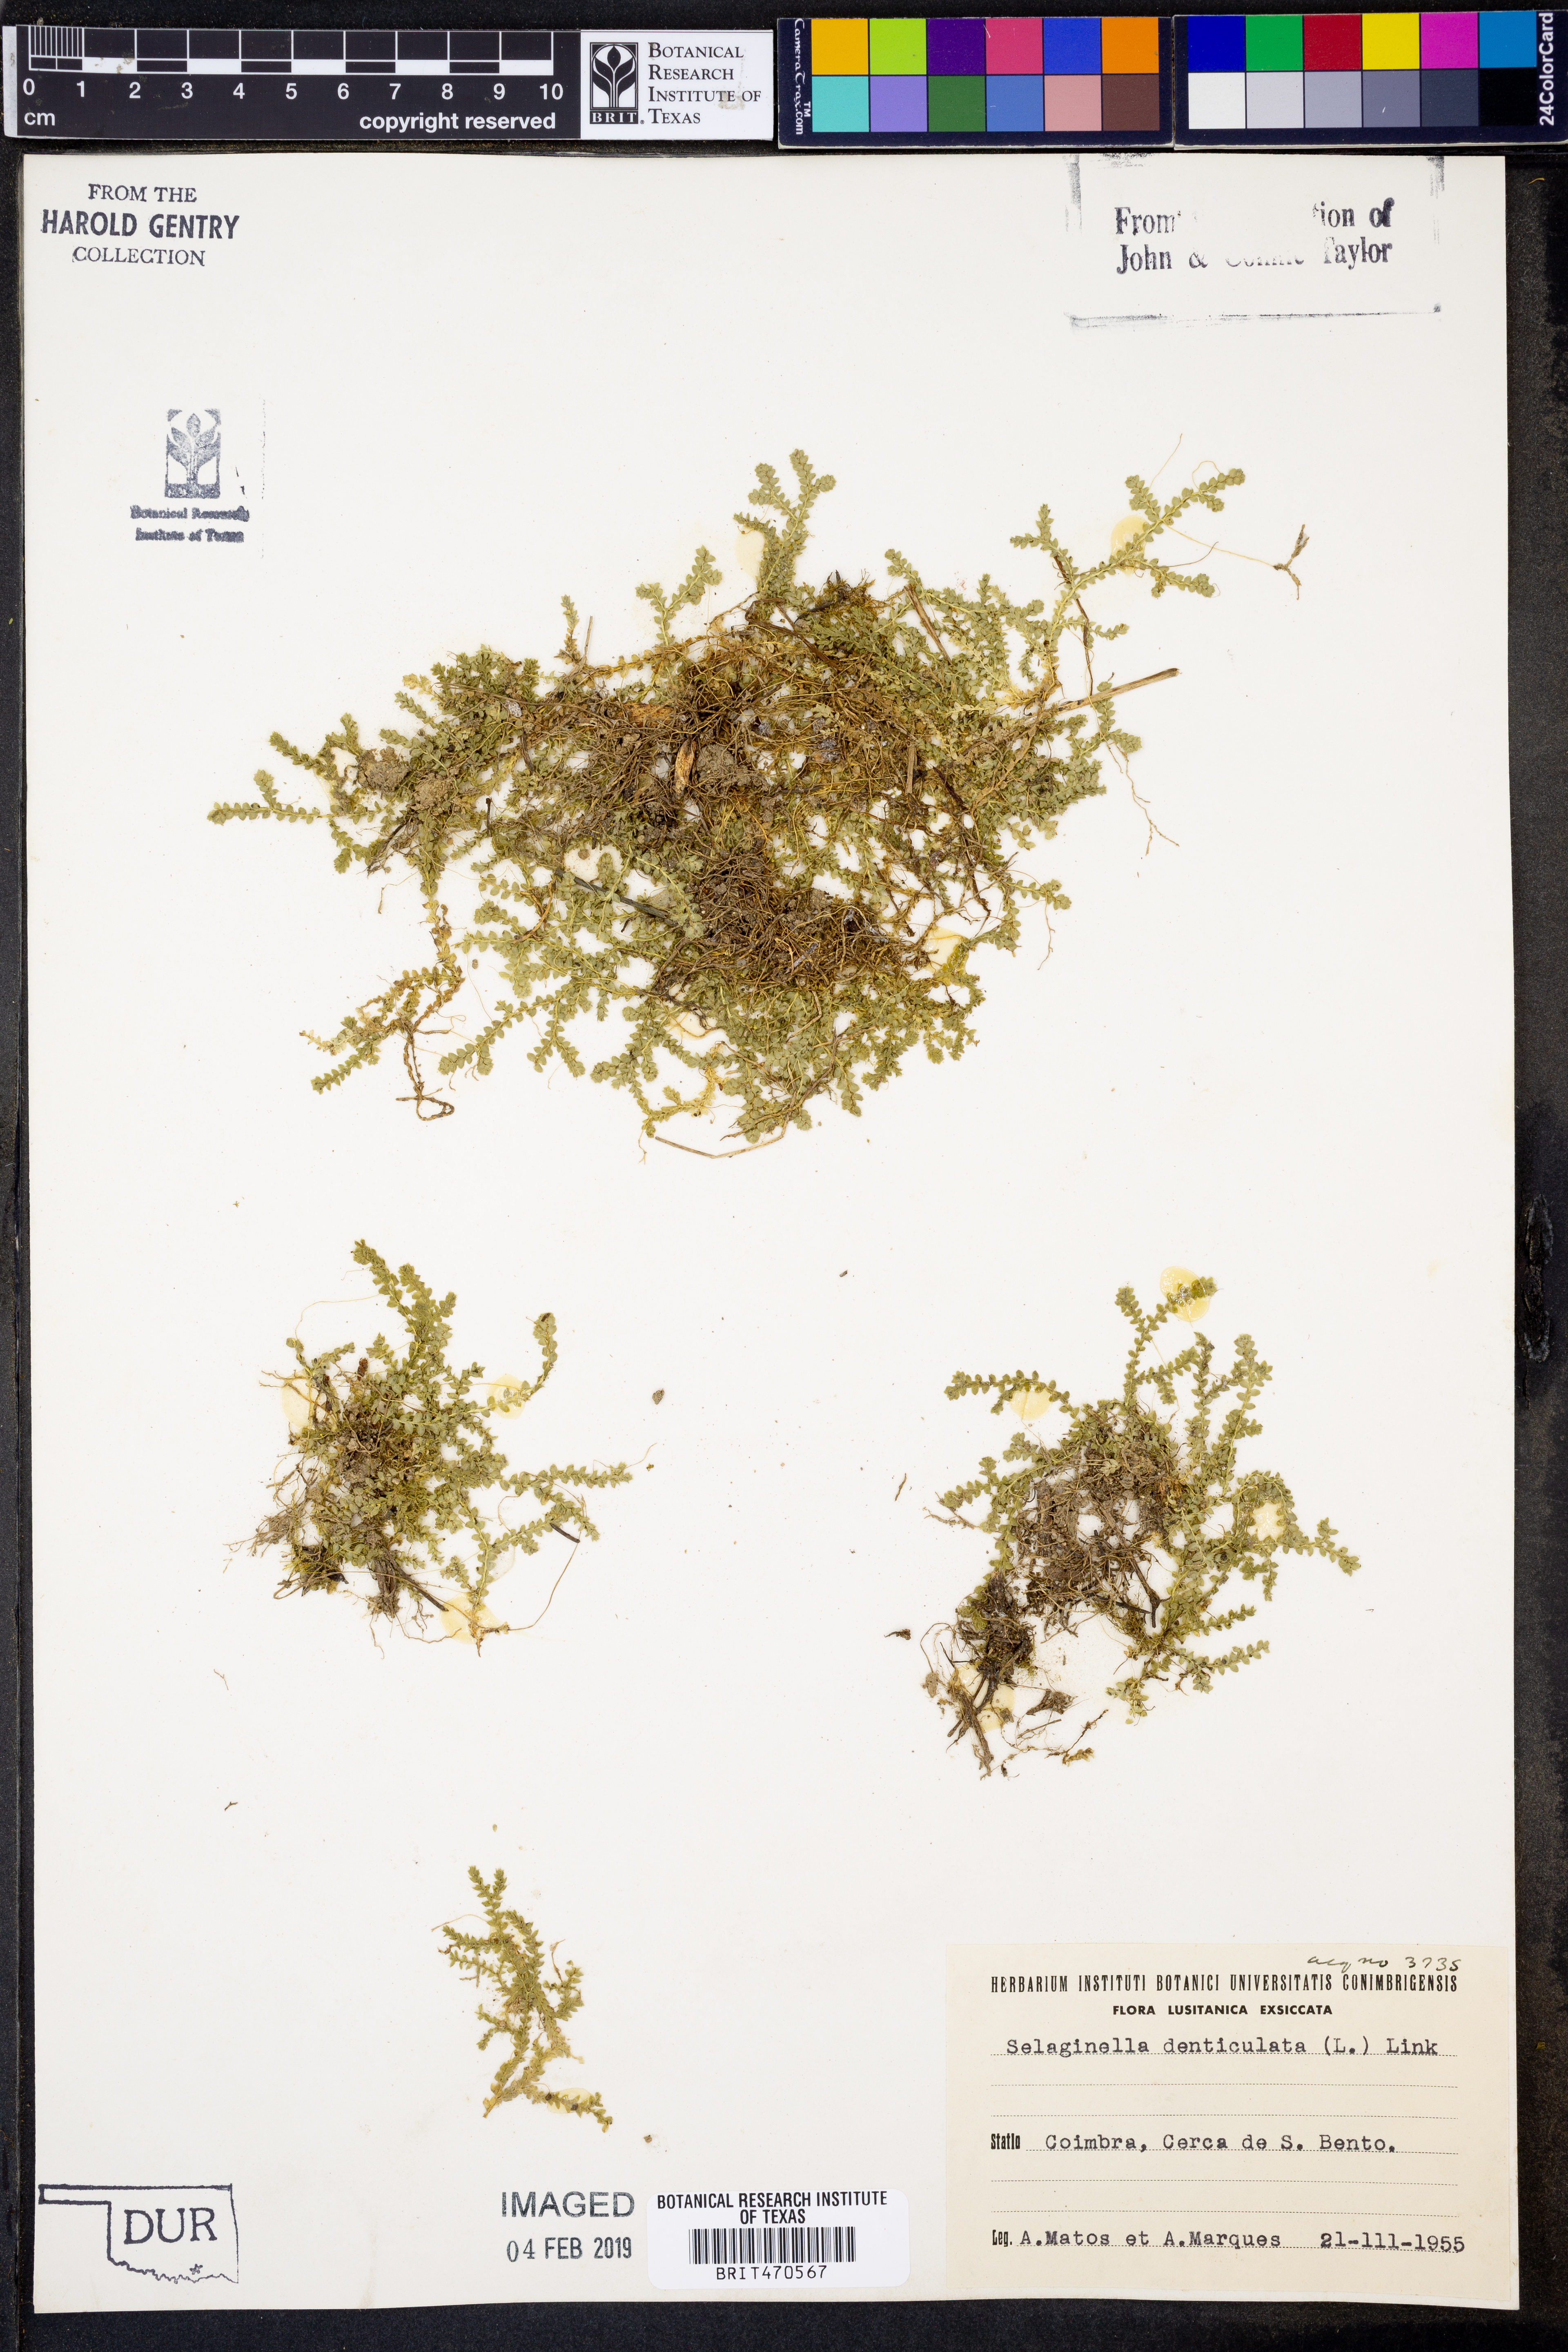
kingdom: Plantae
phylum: Tracheophyta
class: Lycopodiopsida
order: Selaginellales
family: Selaginellaceae
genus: Selaginella
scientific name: Selaginella denticulata
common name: Toothed-leaved clubmoss
